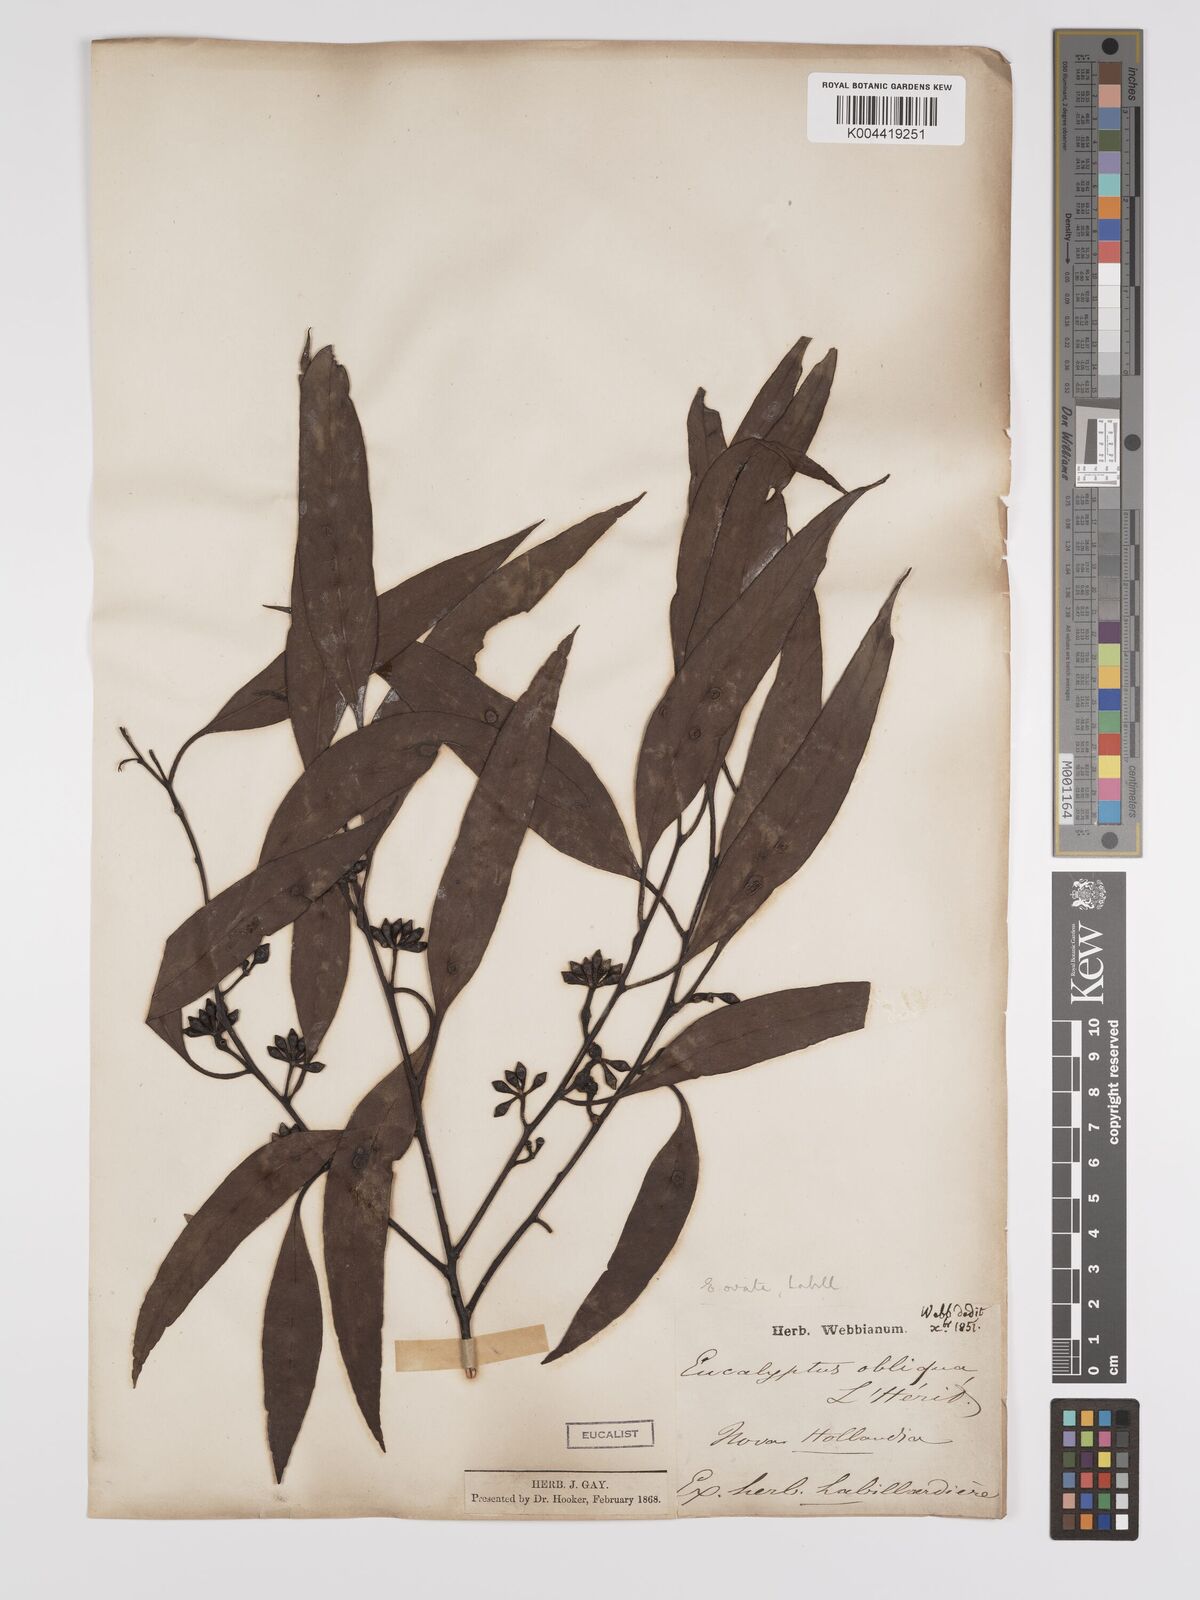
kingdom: Plantae
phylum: Tracheophyta
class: Magnoliopsida
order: Myrtales
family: Myrtaceae
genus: Eucalyptus
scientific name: Eucalyptus ovata
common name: Black-gum
